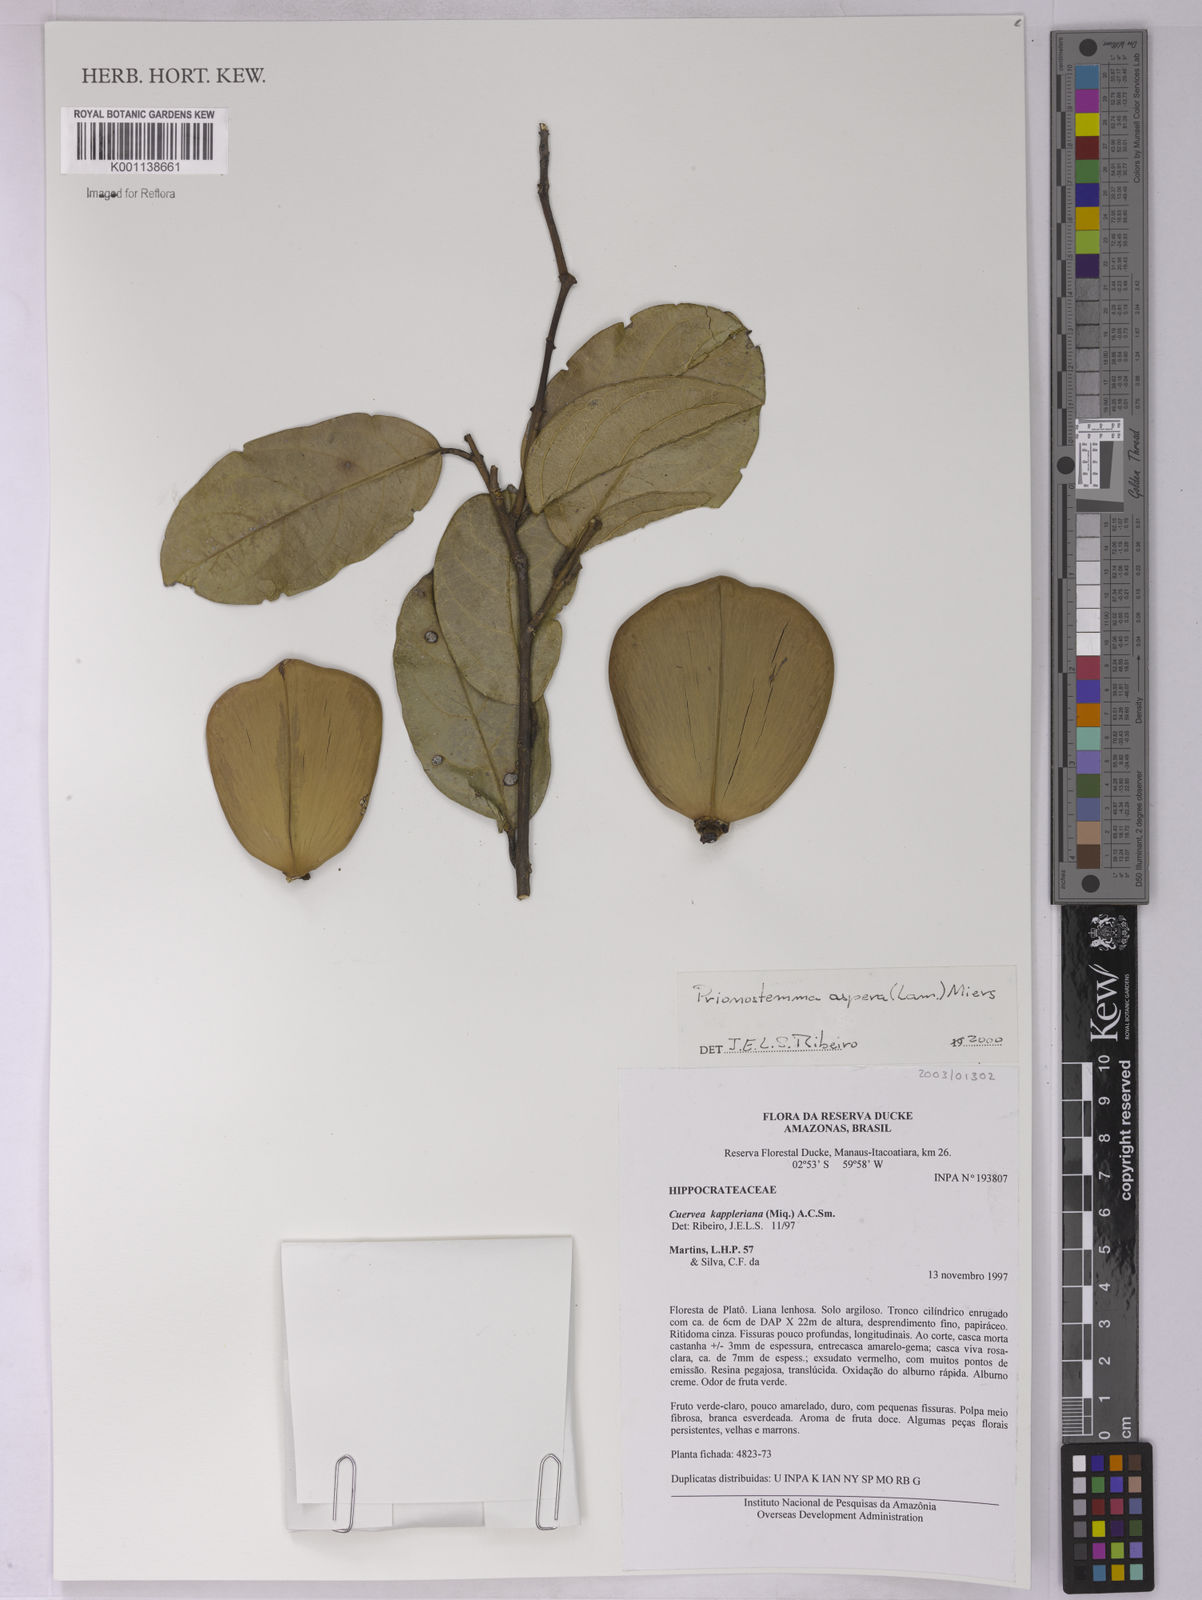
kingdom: Plantae
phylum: Tracheophyta
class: Magnoliopsida
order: Celastrales
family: Celastraceae
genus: Prionostemma
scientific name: Prionostemma aspera
